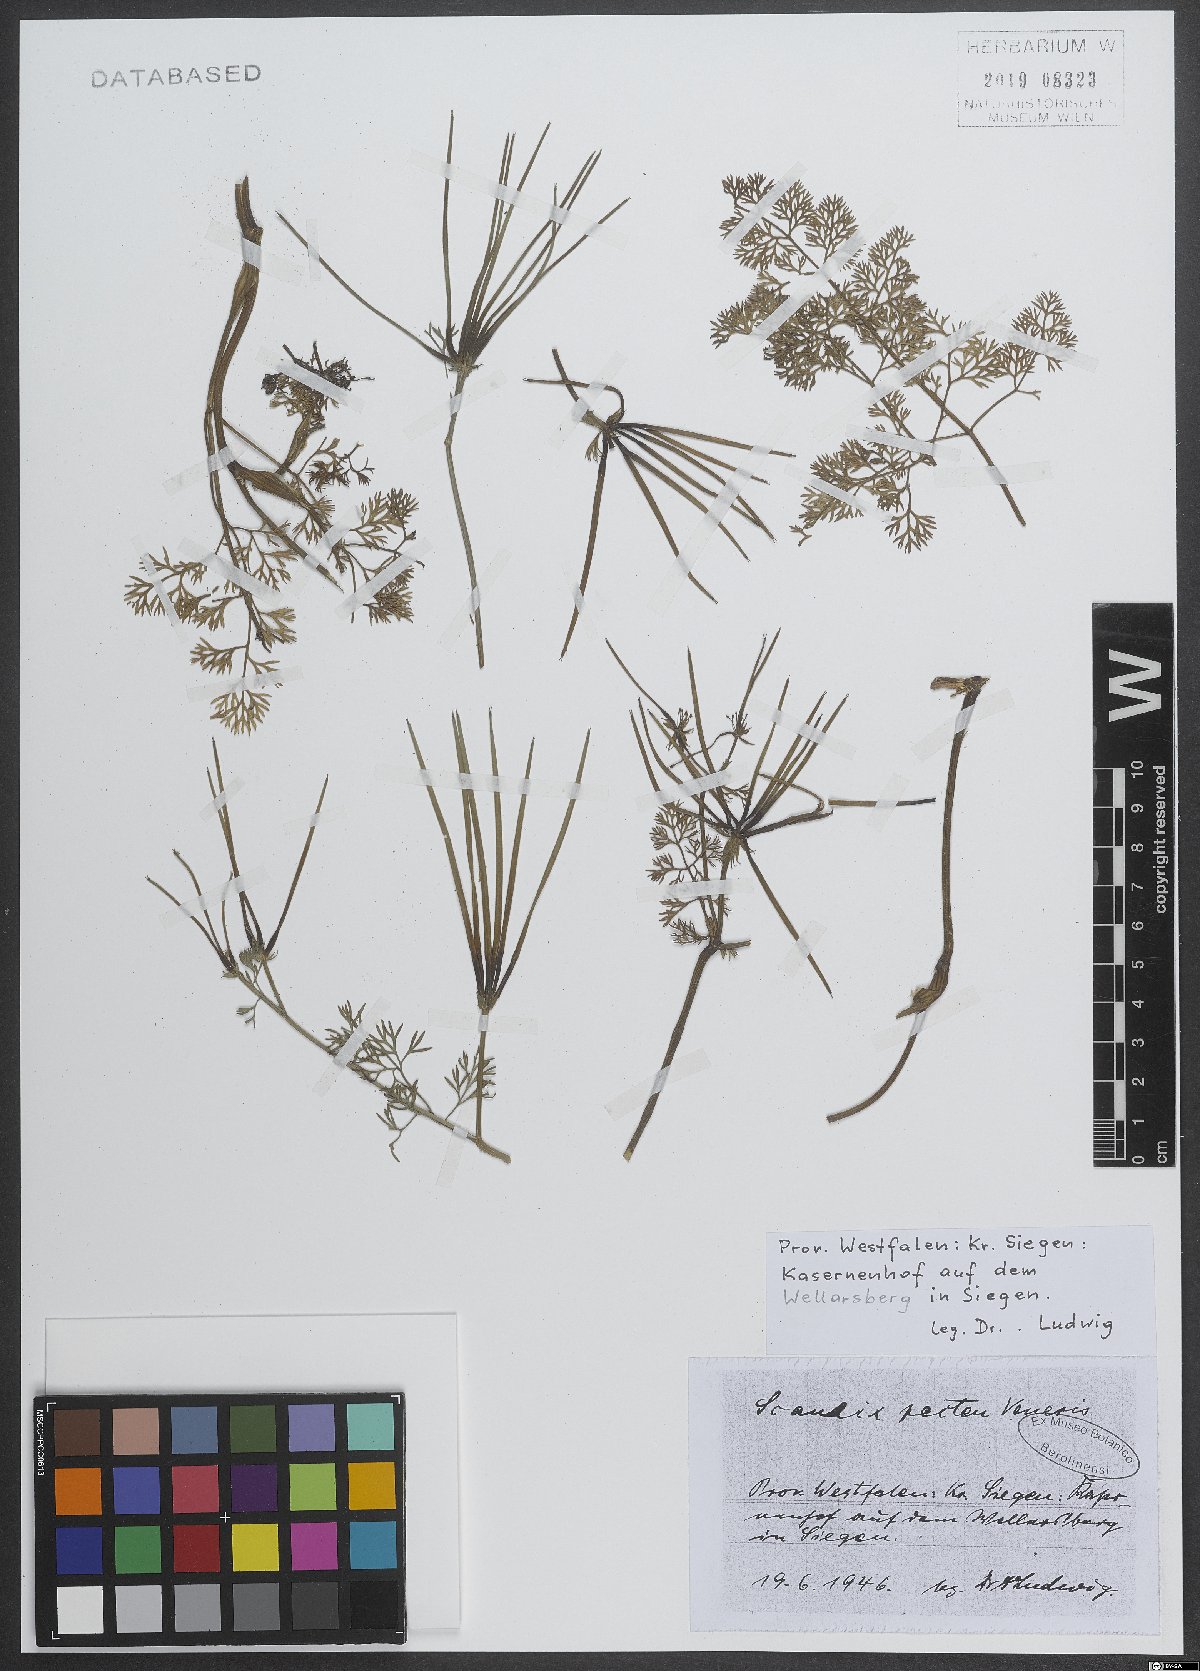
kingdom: Plantae
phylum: Tracheophyta
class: Magnoliopsida
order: Apiales
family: Apiaceae
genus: Scandix
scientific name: Scandix pecten-veneris
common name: Shepherd's-needle
